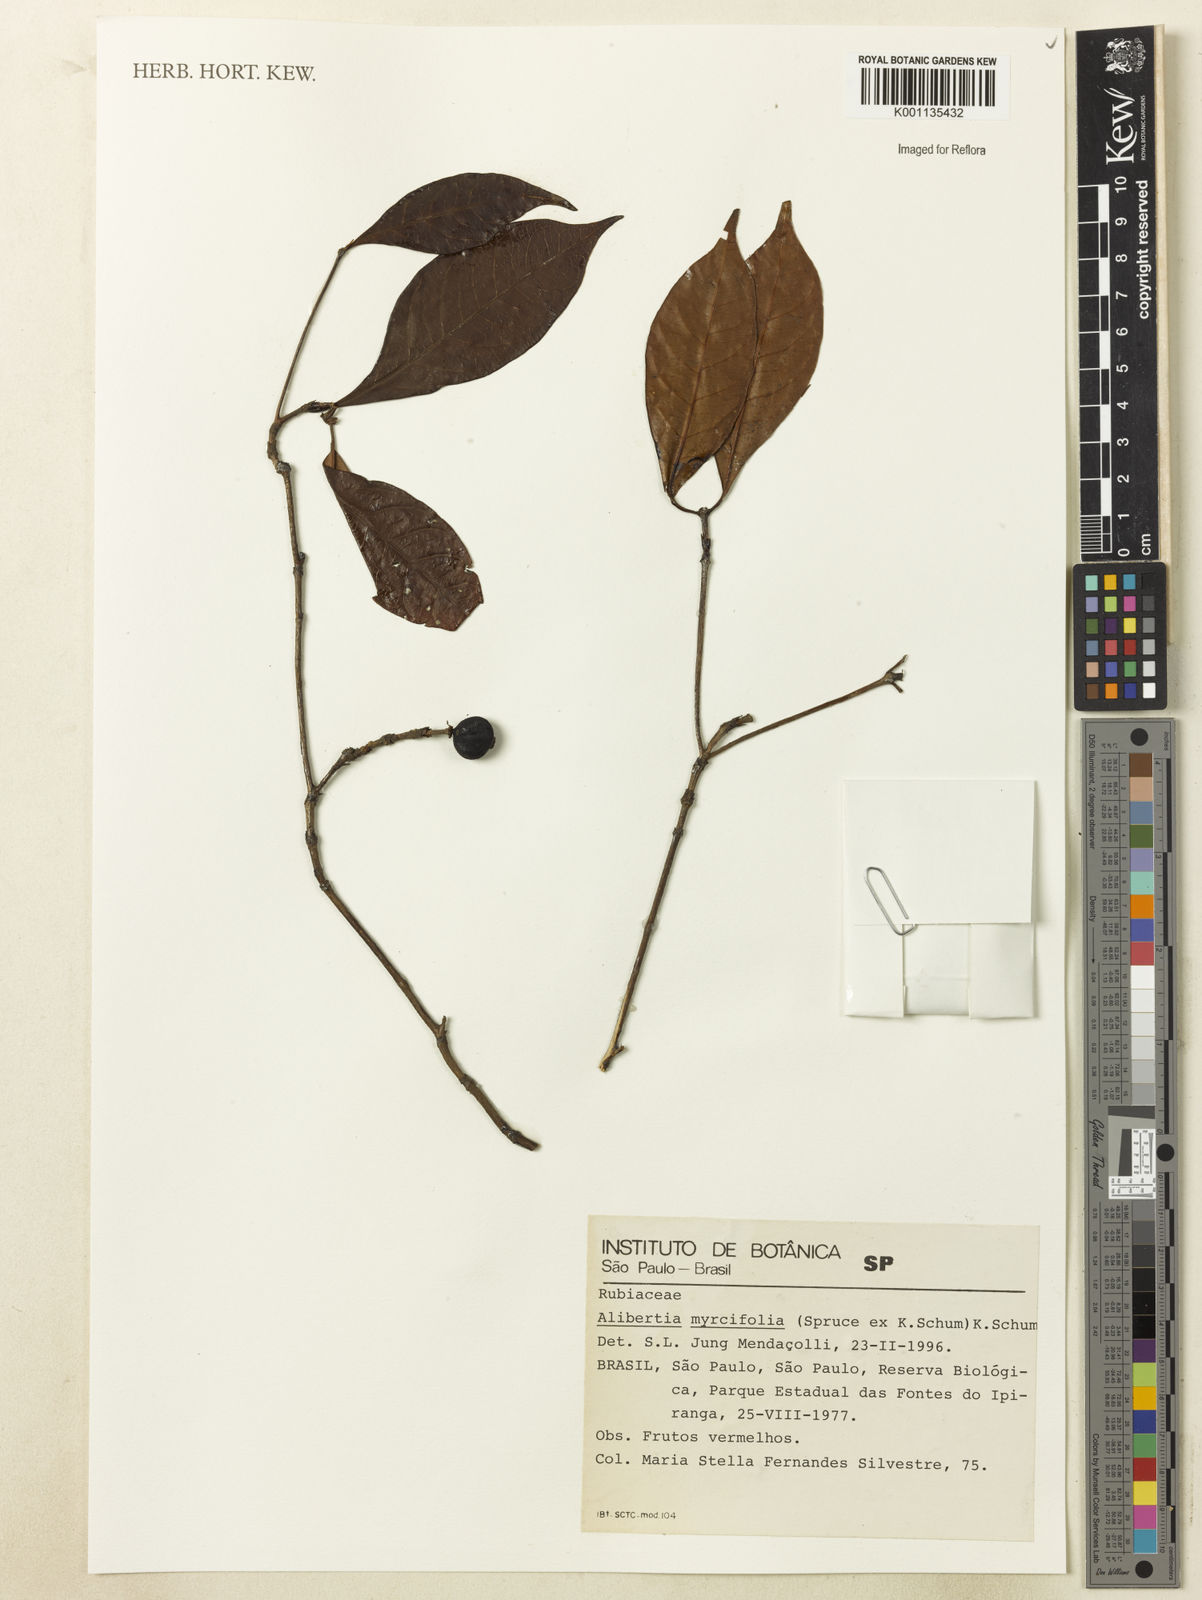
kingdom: Plantae
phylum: Tracheophyta
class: Magnoliopsida
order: Gentianales
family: Rubiaceae
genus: Cordiera
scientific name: Cordiera myrciifolia
